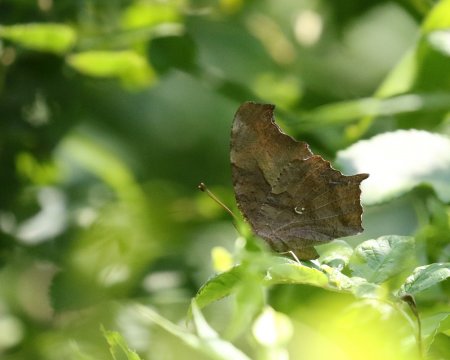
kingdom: Animalia
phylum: Arthropoda
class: Insecta
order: Lepidoptera
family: Nymphalidae
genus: Polygonia
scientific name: Polygonia interrogationis
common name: Question Mark
